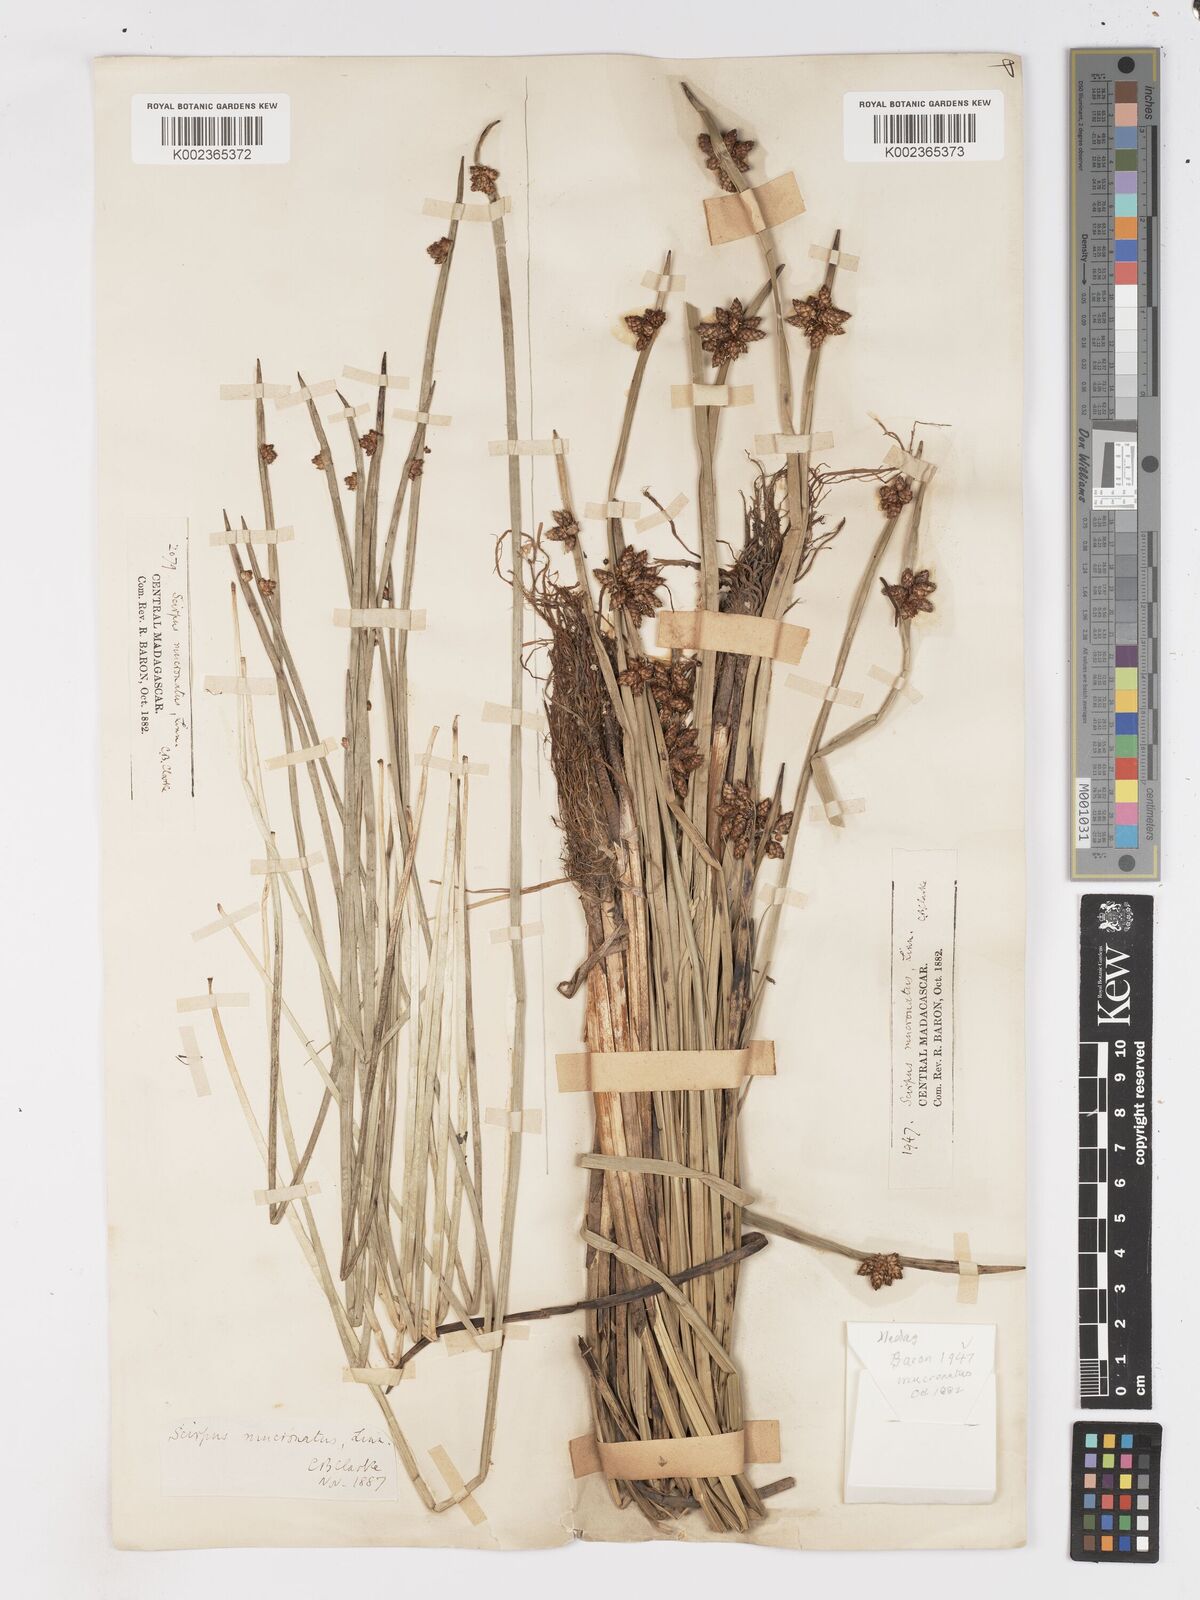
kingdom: Plantae
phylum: Tracheophyta
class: Liliopsida
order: Poales
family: Cyperaceae
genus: Schoenoplectiella
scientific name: Schoenoplectiella mucronata
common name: Bog bulrush
